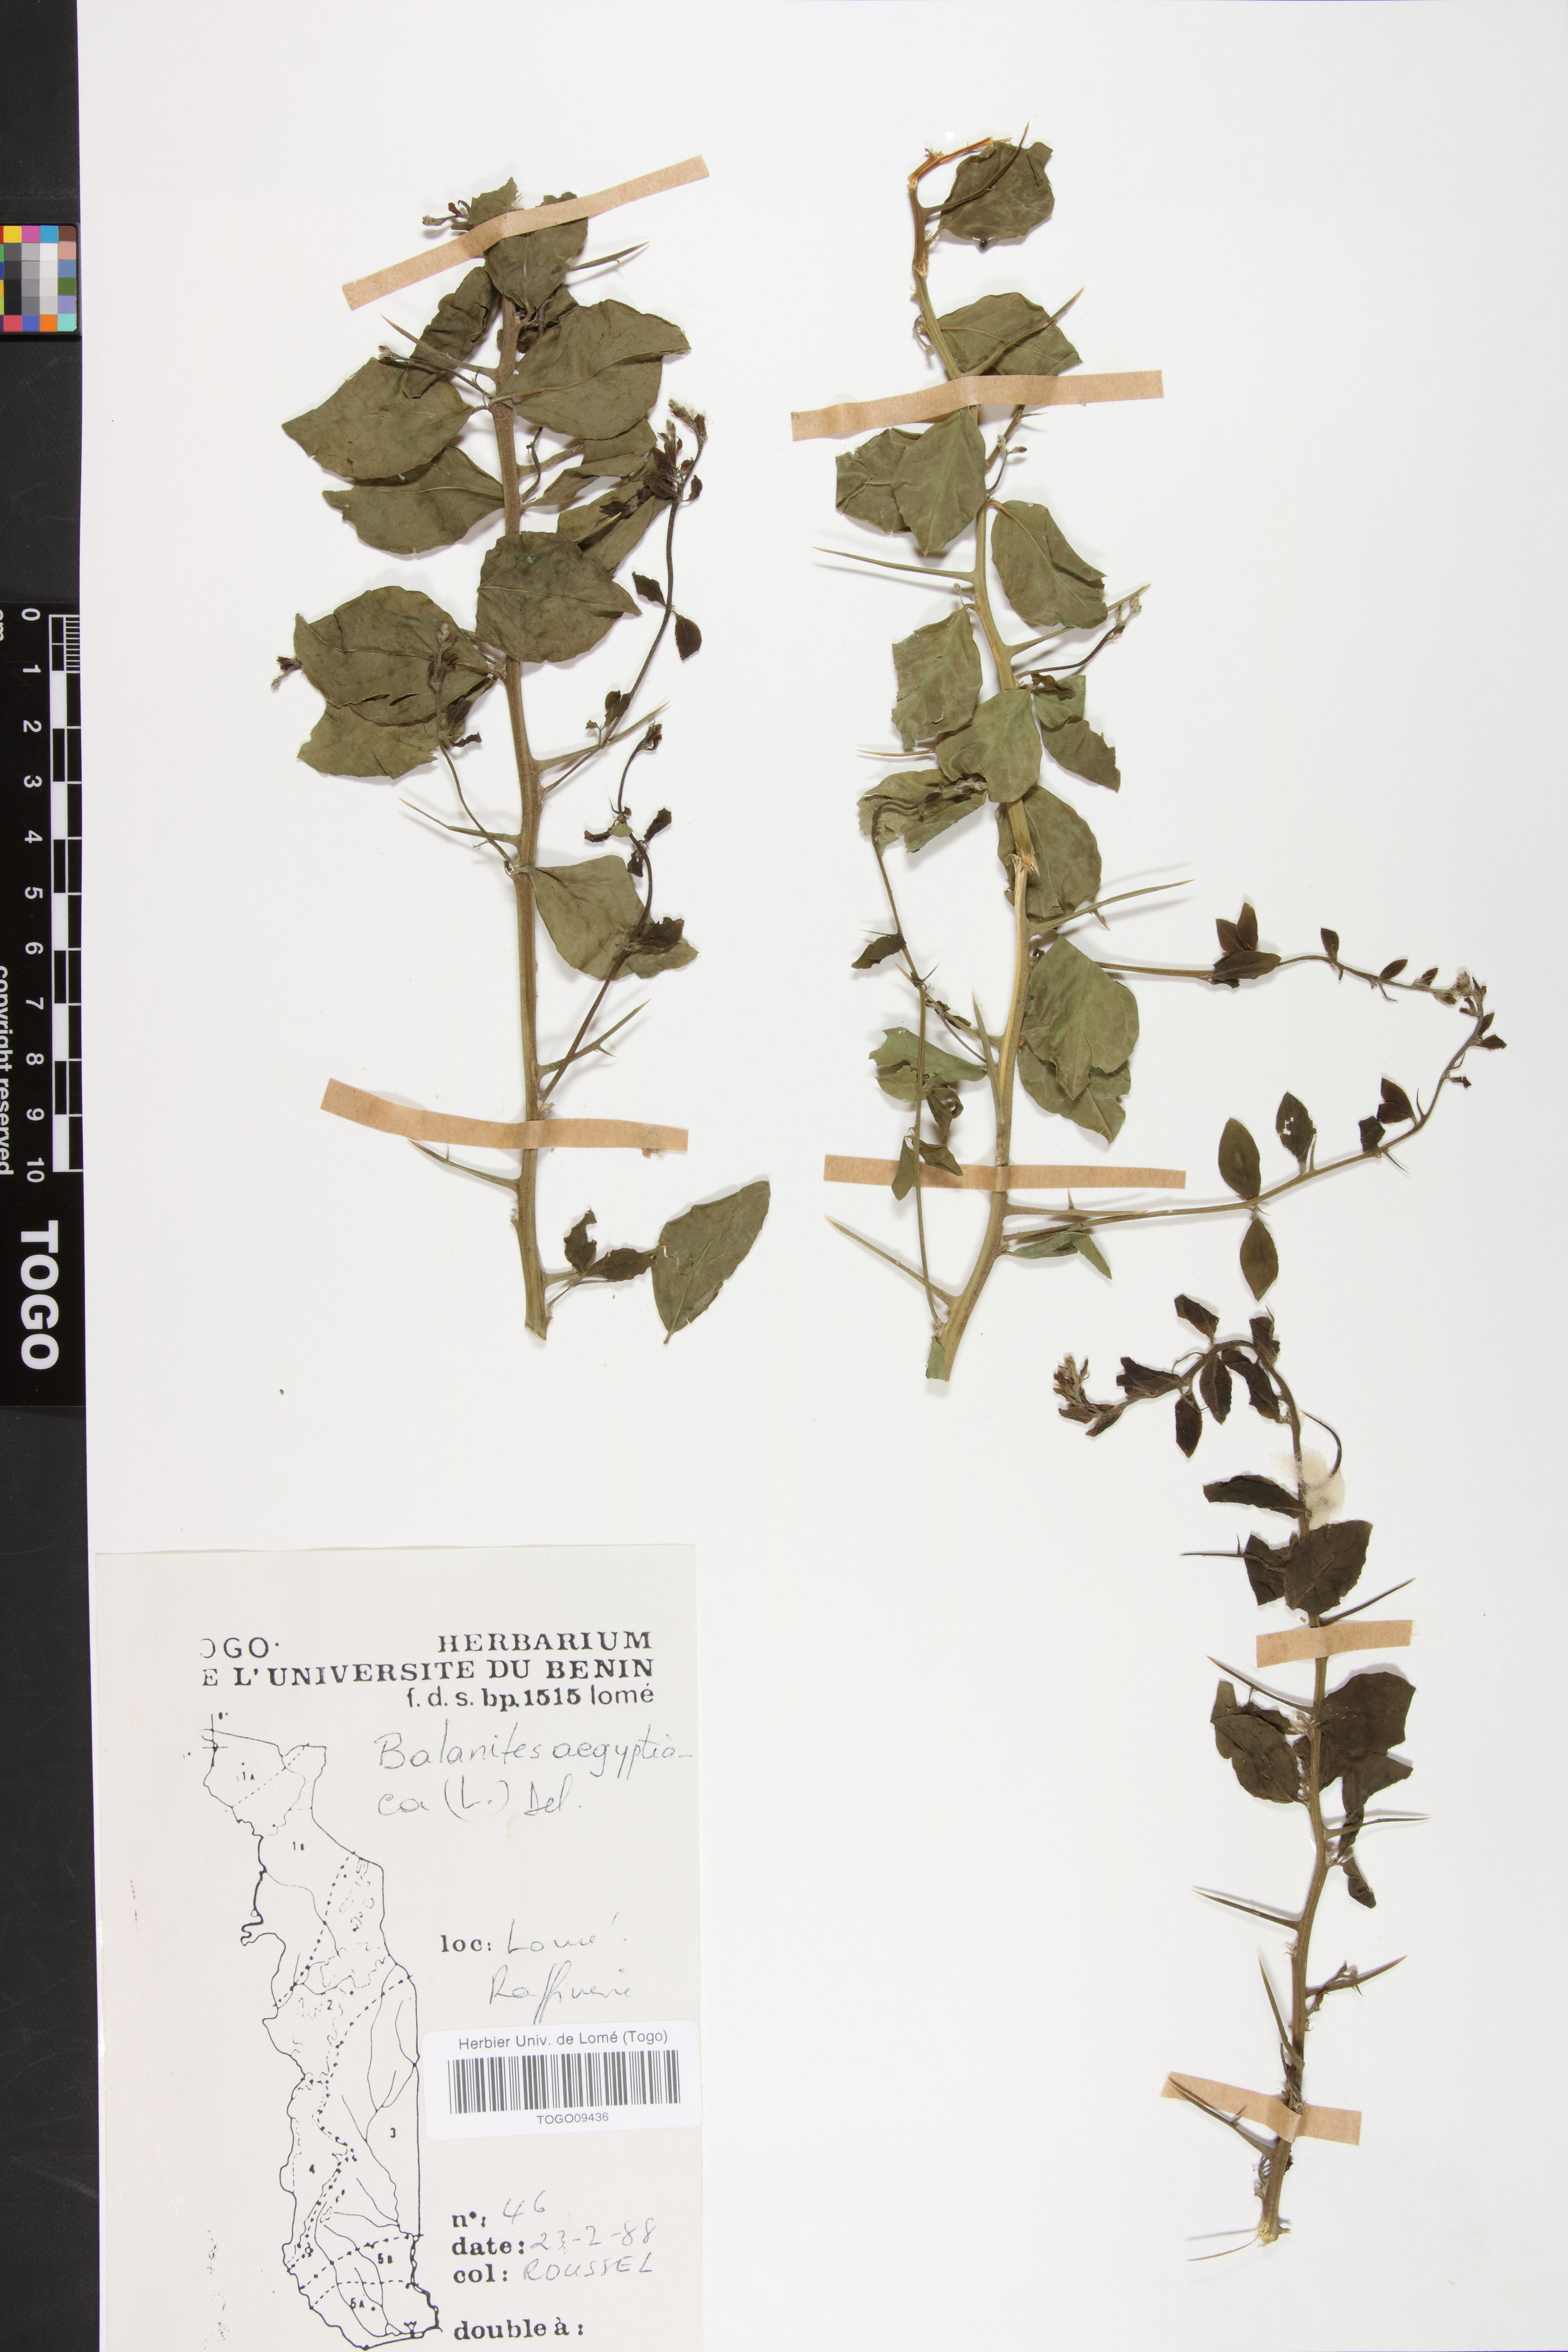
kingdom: Plantae
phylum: Tracheophyta
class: Magnoliopsida
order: Zygophyllales
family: Zygophyllaceae
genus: Balanites
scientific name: Balanites aegyptiaca
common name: Balanites
